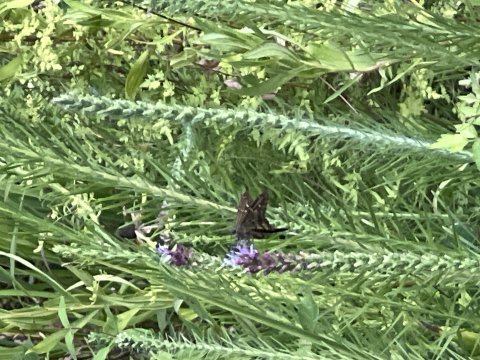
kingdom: Animalia
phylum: Arthropoda
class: Insecta
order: Lepidoptera
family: Hesperiidae
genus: Urbanus
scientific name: Urbanus proteus
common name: Long-tailed Skipper
